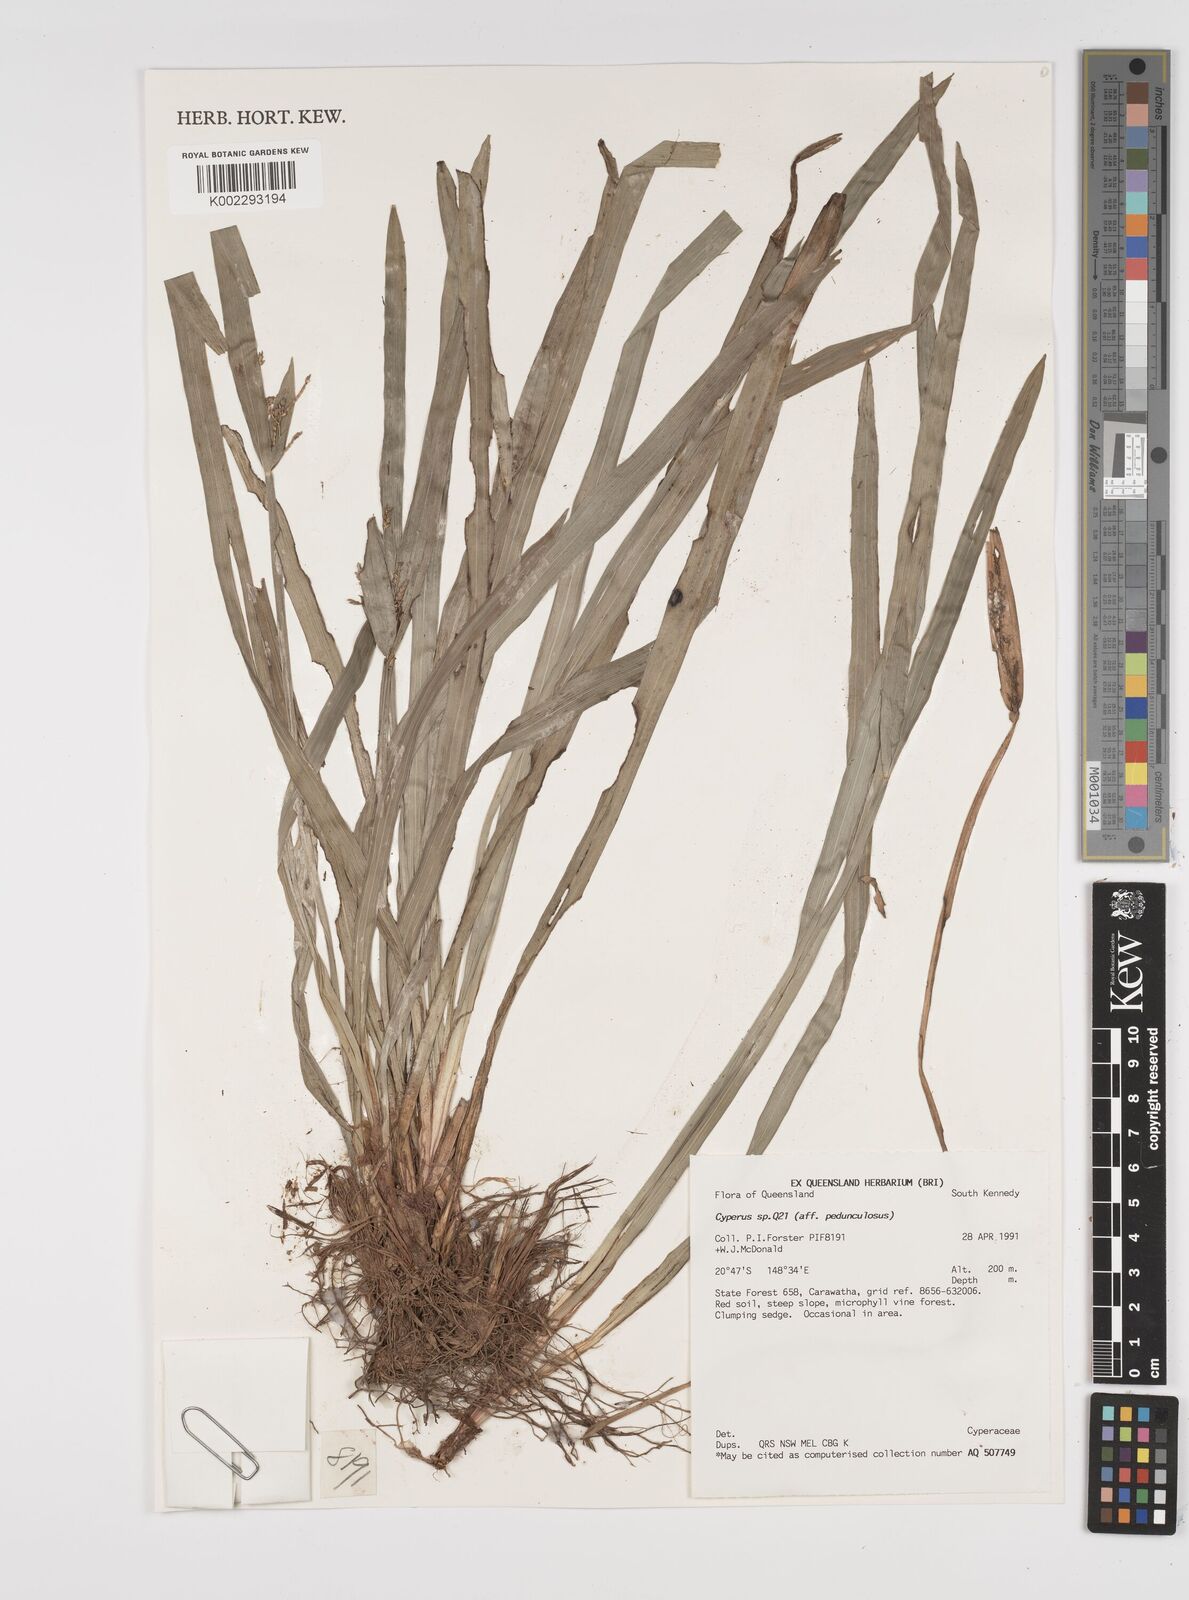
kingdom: Plantae
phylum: Tracheophyta
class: Liliopsida
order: Poales
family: Cyperaceae
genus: Cyperus
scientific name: Cyperus pedunculosus
